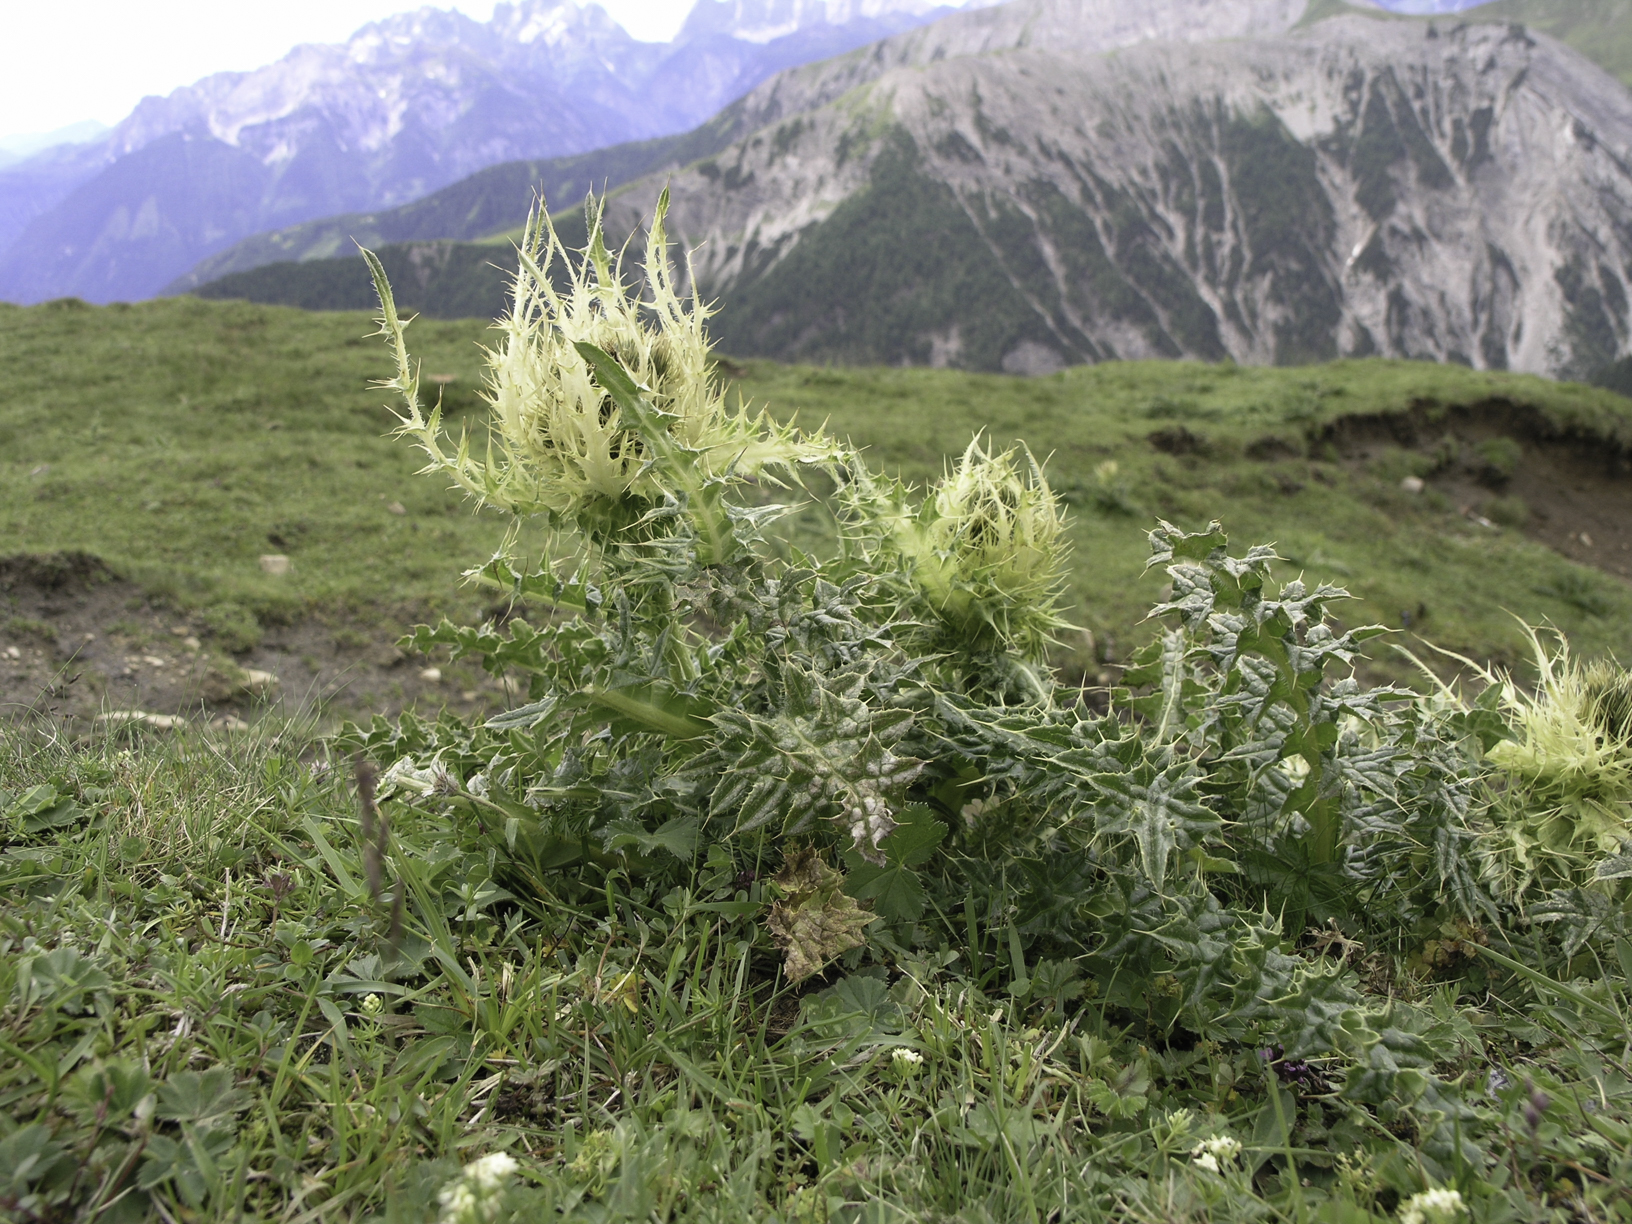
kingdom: Plantae
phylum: Tracheophyta
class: Magnoliopsida
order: Asterales
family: Asteraceae
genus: Cirsium
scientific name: Cirsium spinosissimum
